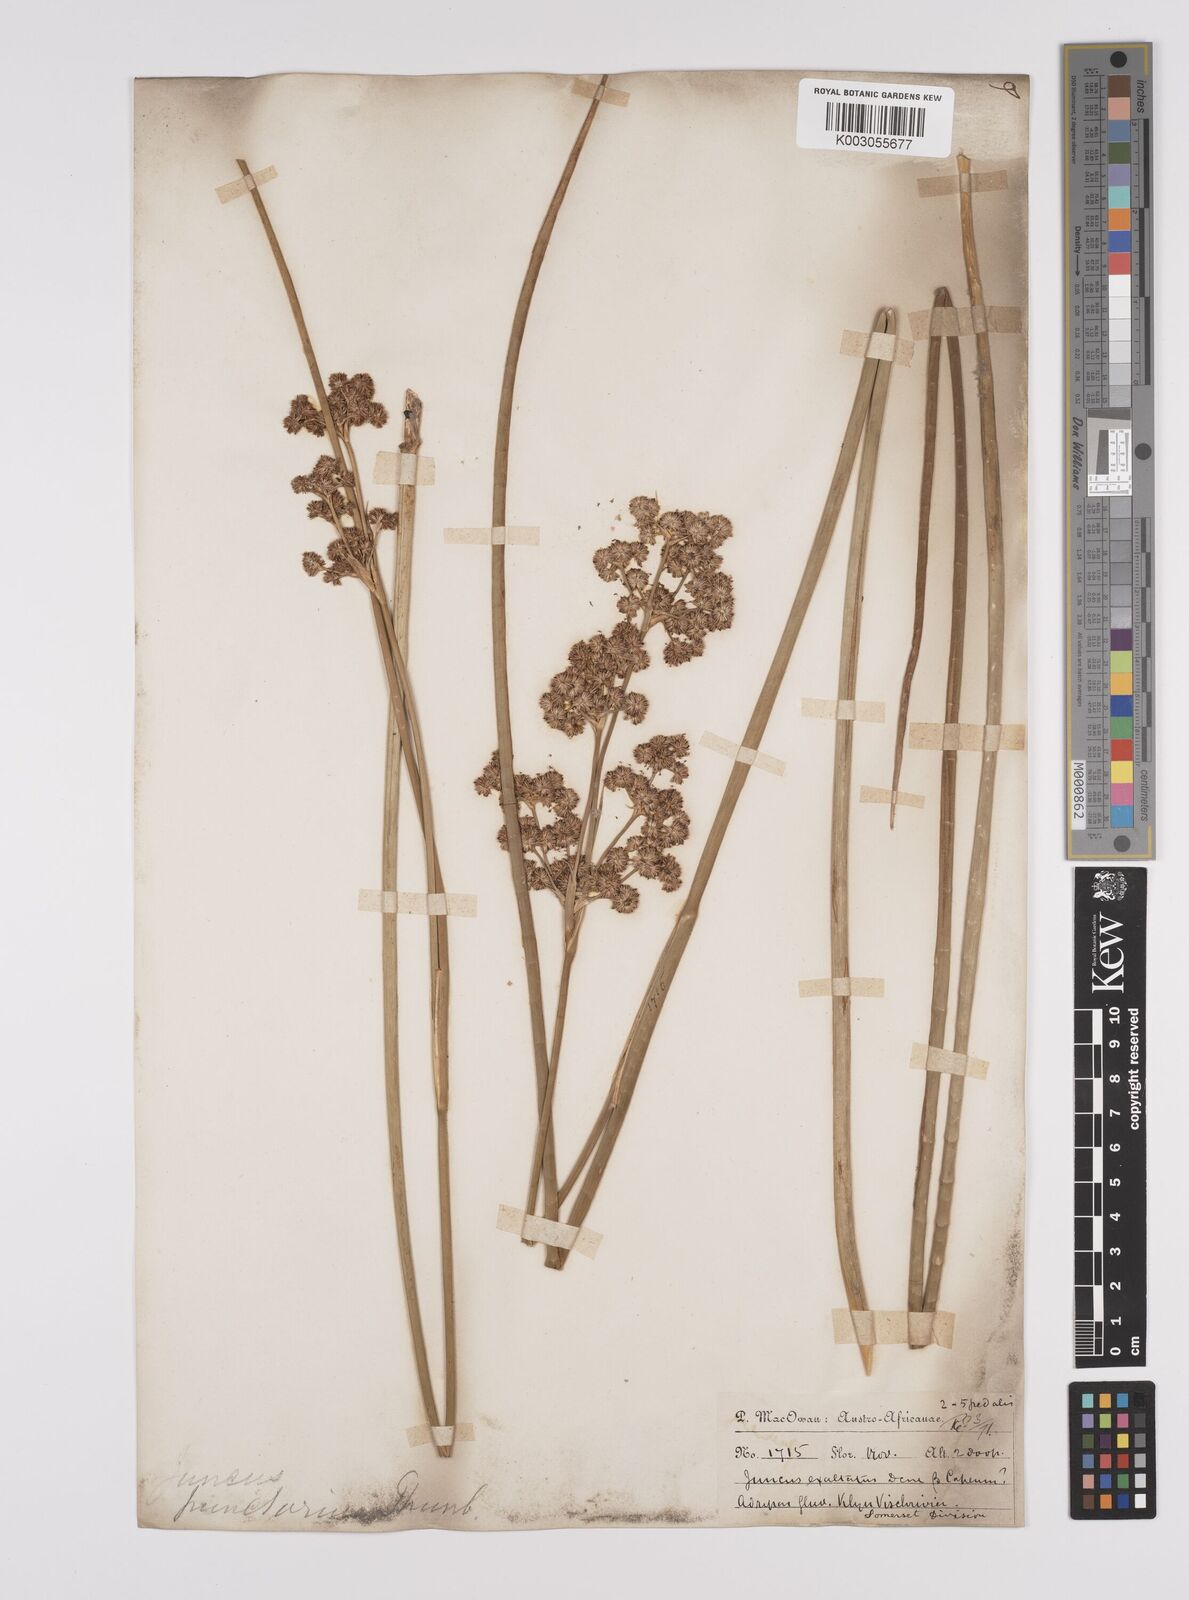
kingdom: Plantae
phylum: Tracheophyta
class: Liliopsida
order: Poales
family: Juncaceae
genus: Juncus
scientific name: Juncus punctorius
